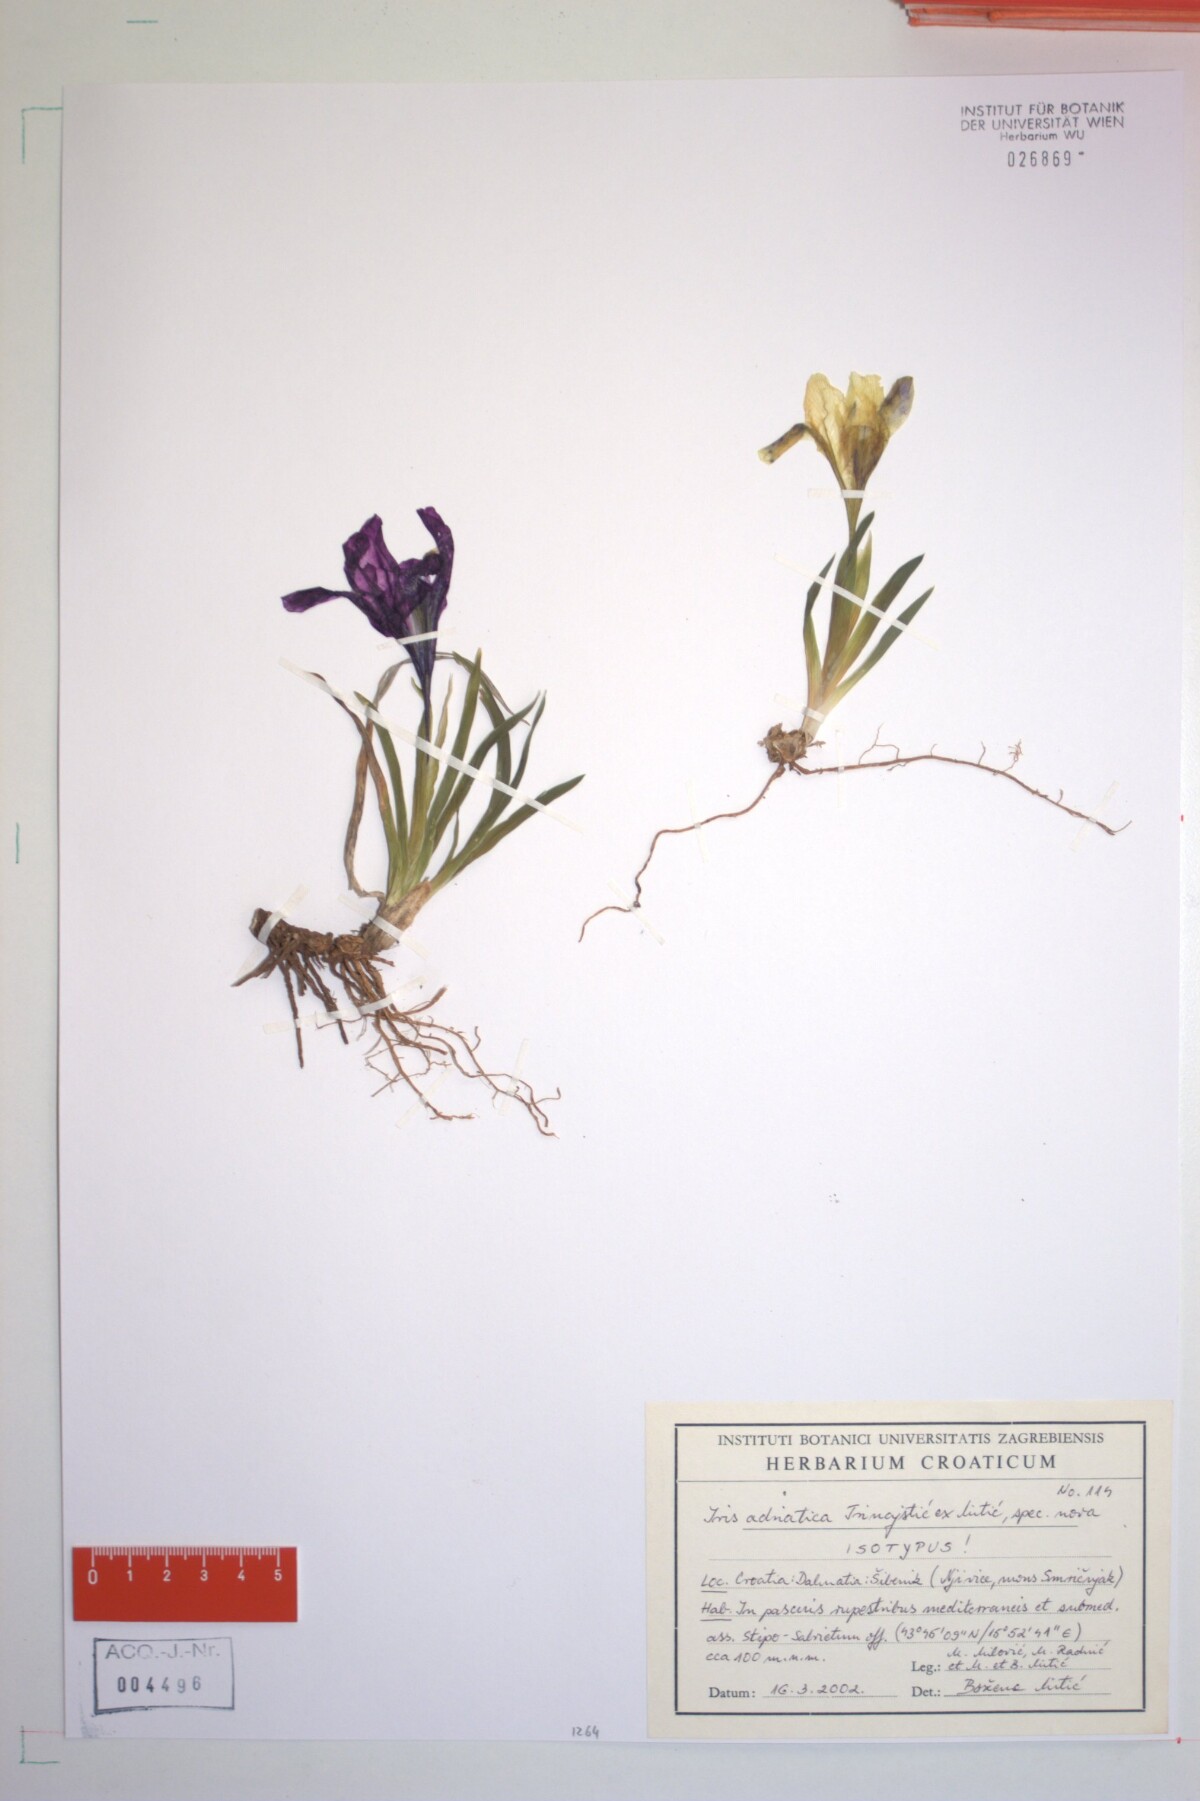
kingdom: Plantae
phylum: Tracheophyta
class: Liliopsida
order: Asparagales
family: Iridaceae
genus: Iris
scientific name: Iris adriatica
